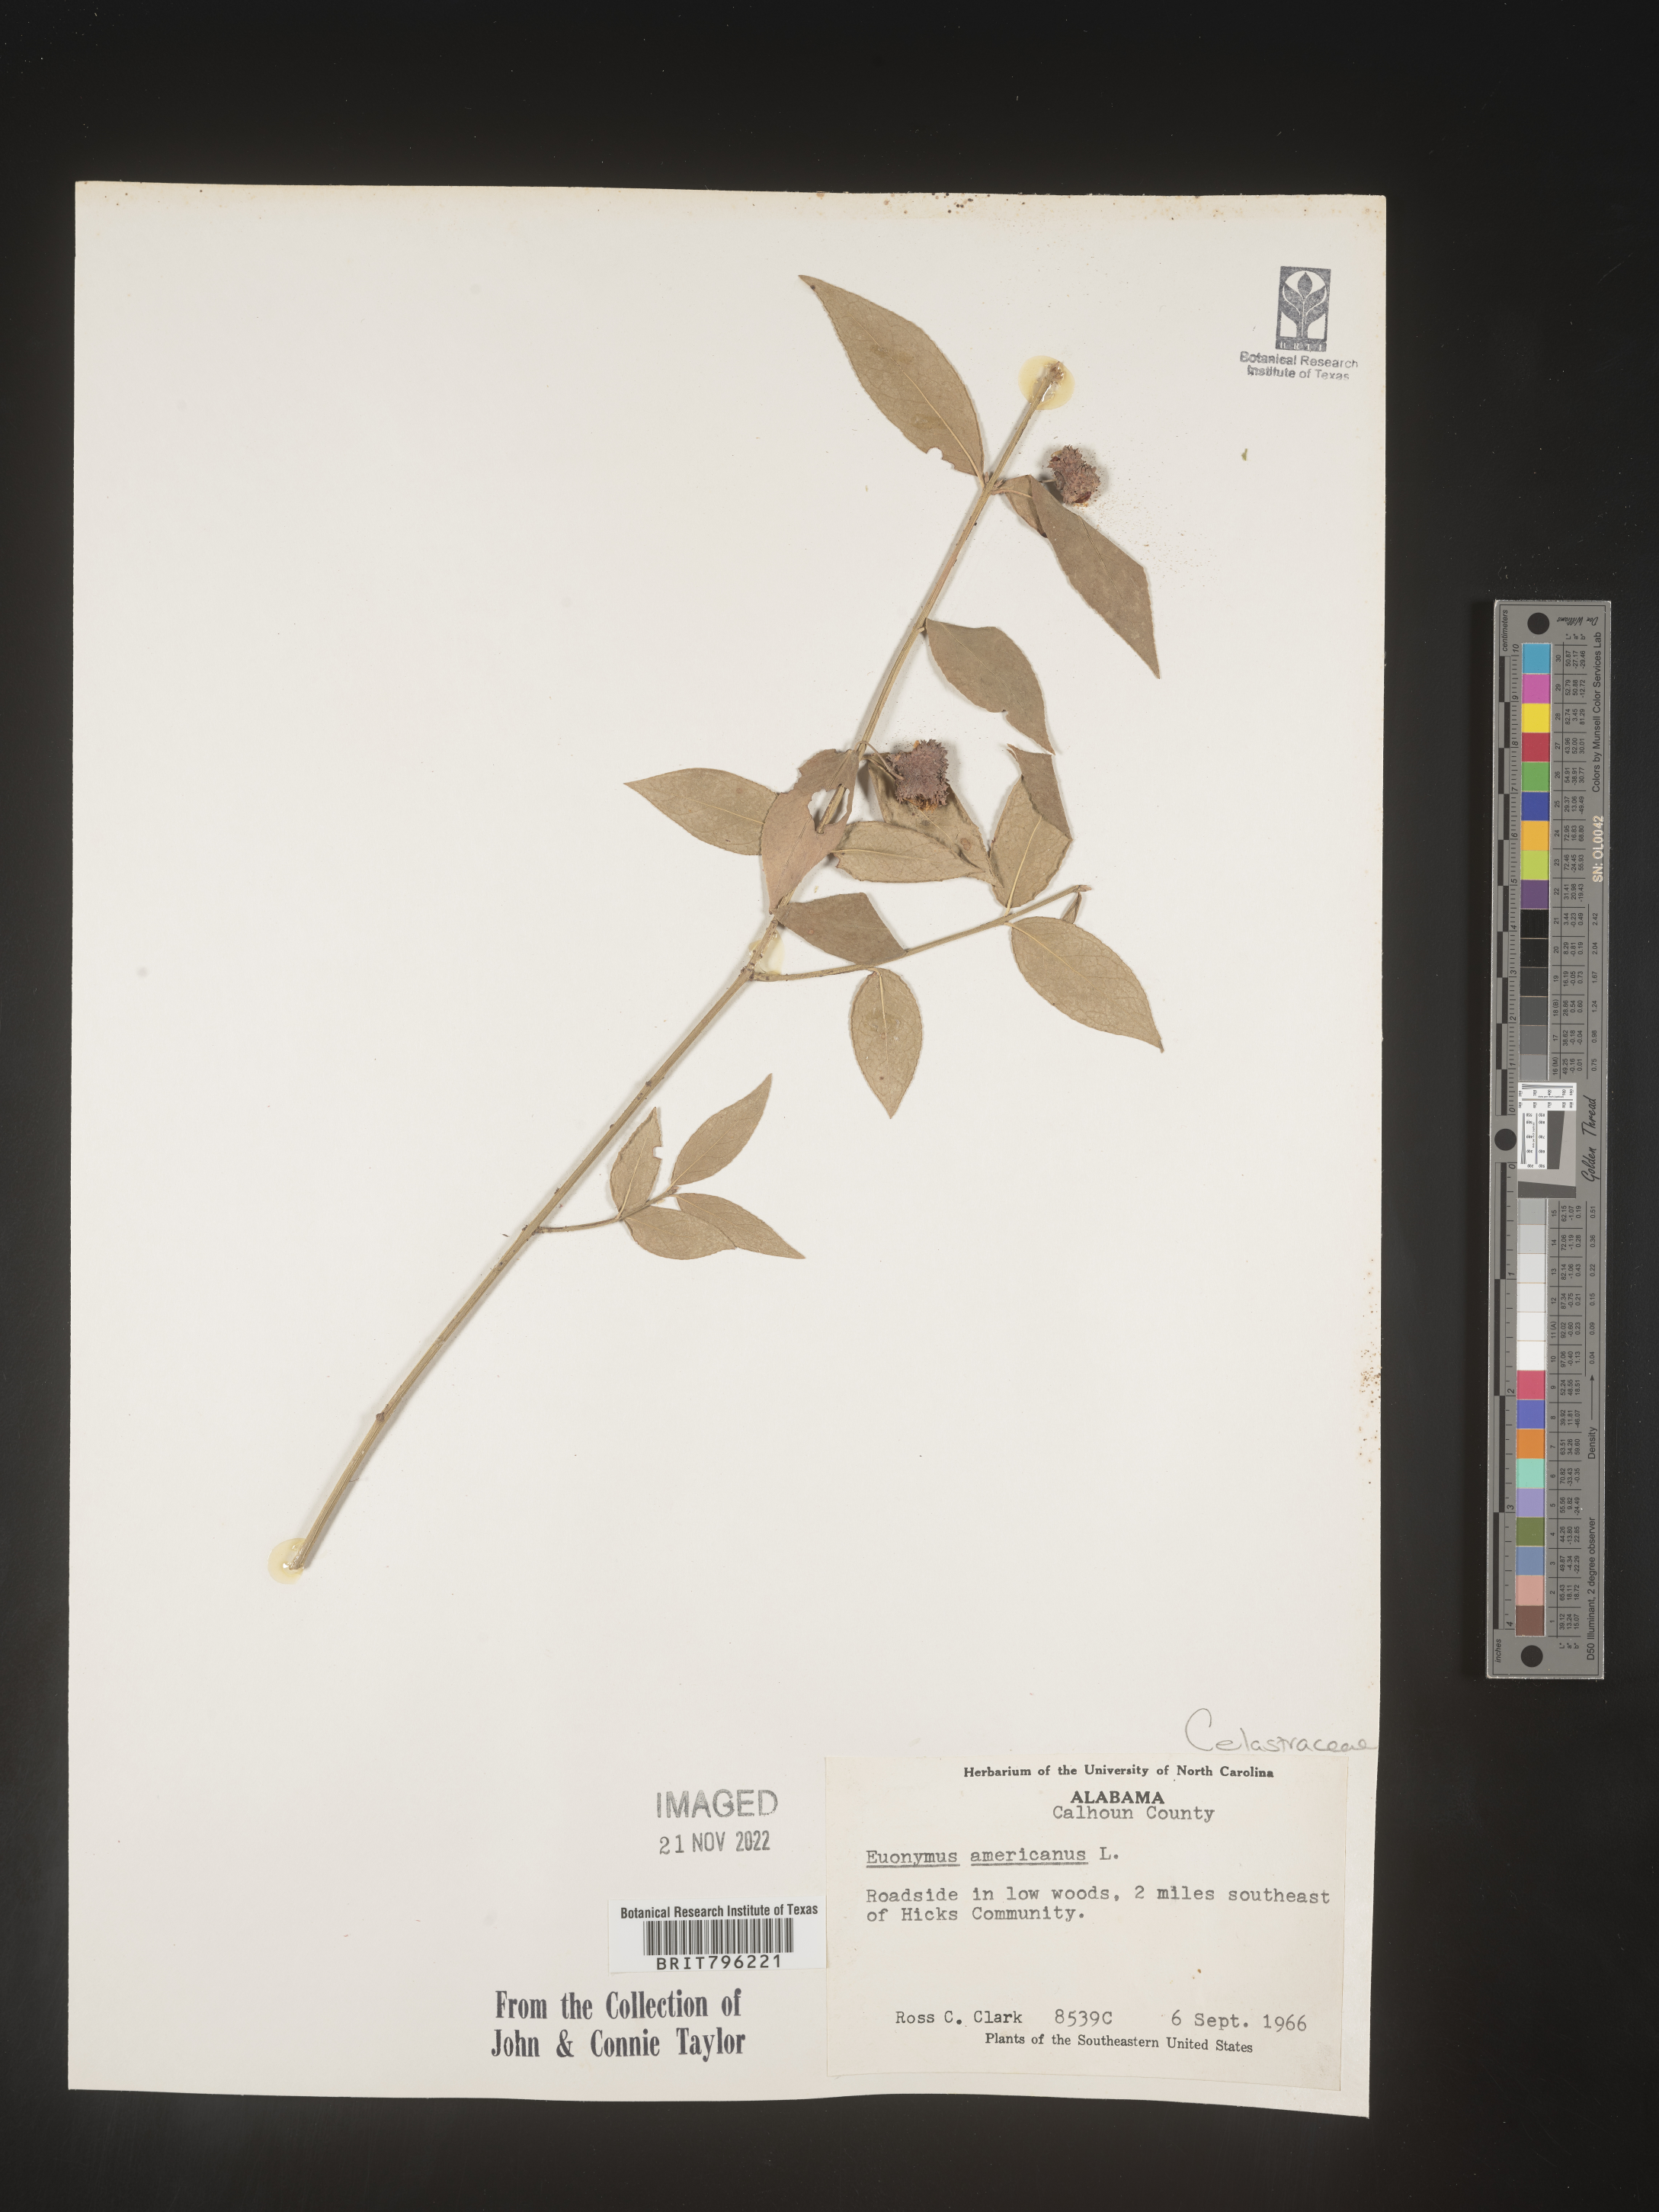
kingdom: Plantae
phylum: Tracheophyta
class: Magnoliopsida
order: Celastrales
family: Celastraceae
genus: Euonymus
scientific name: Euonymus americanus
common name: Bursting-heart
